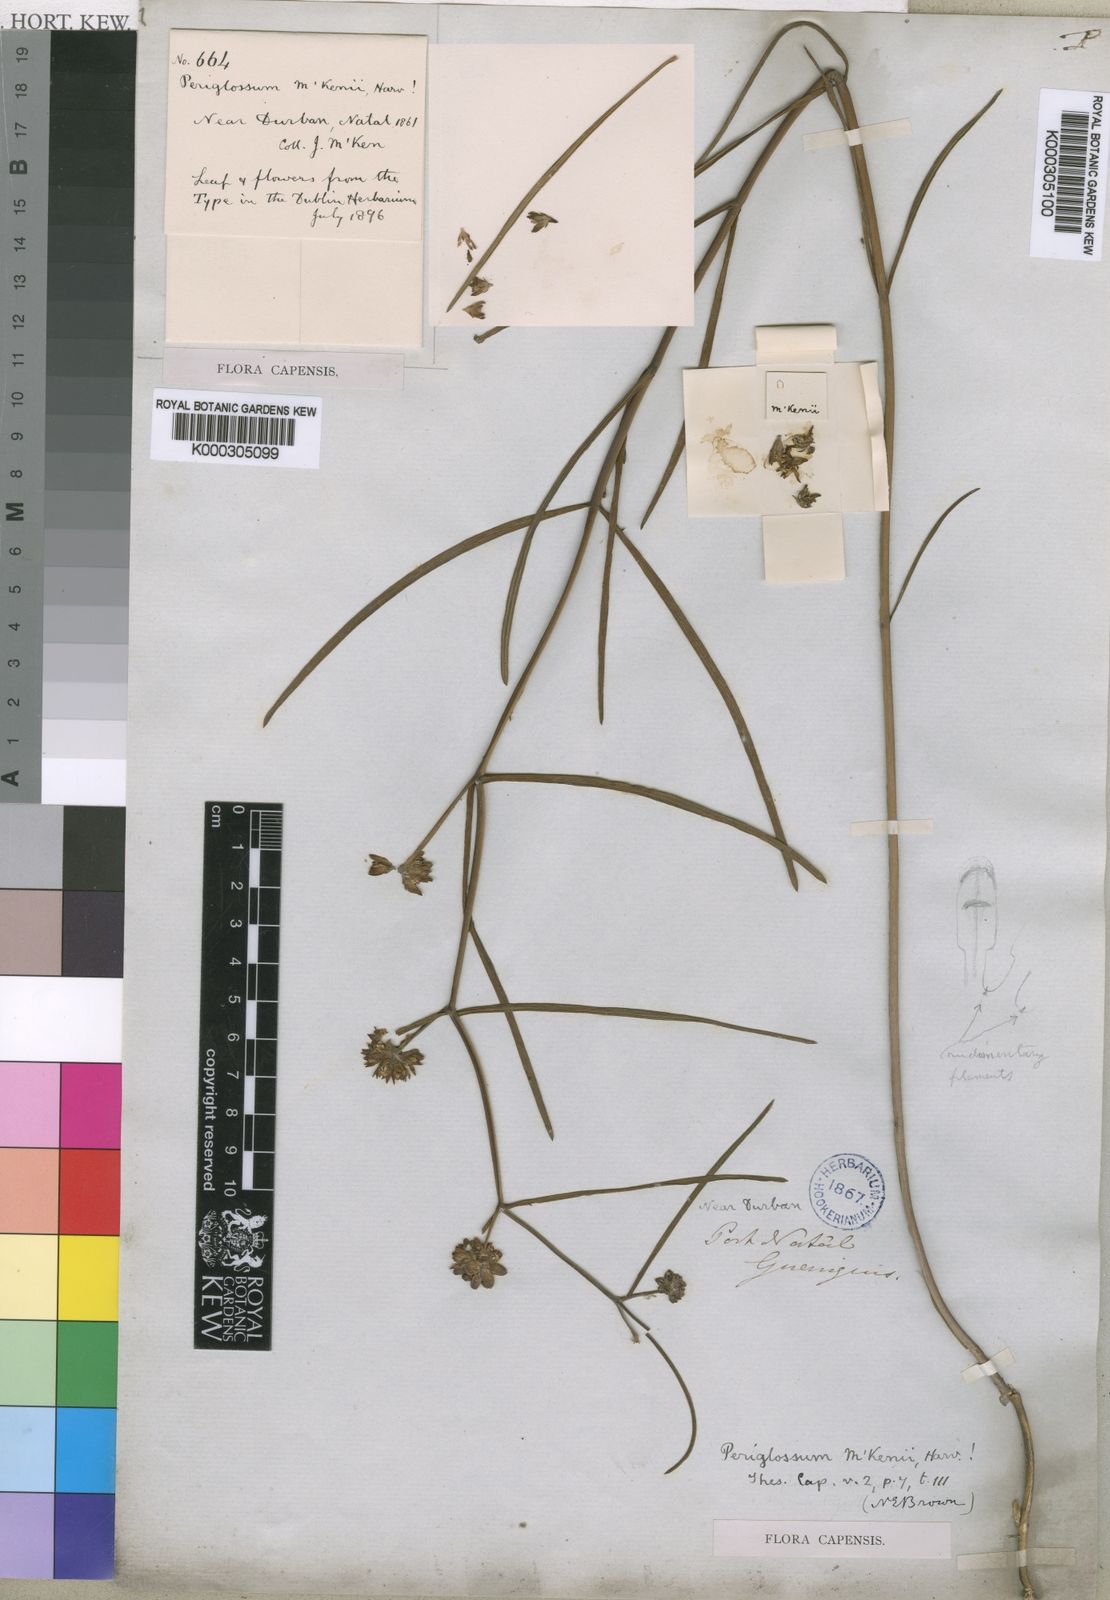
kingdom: Plantae
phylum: Tracheophyta
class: Magnoliopsida
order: Gentianales
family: Apocynaceae
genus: Periglossum
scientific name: Periglossum
